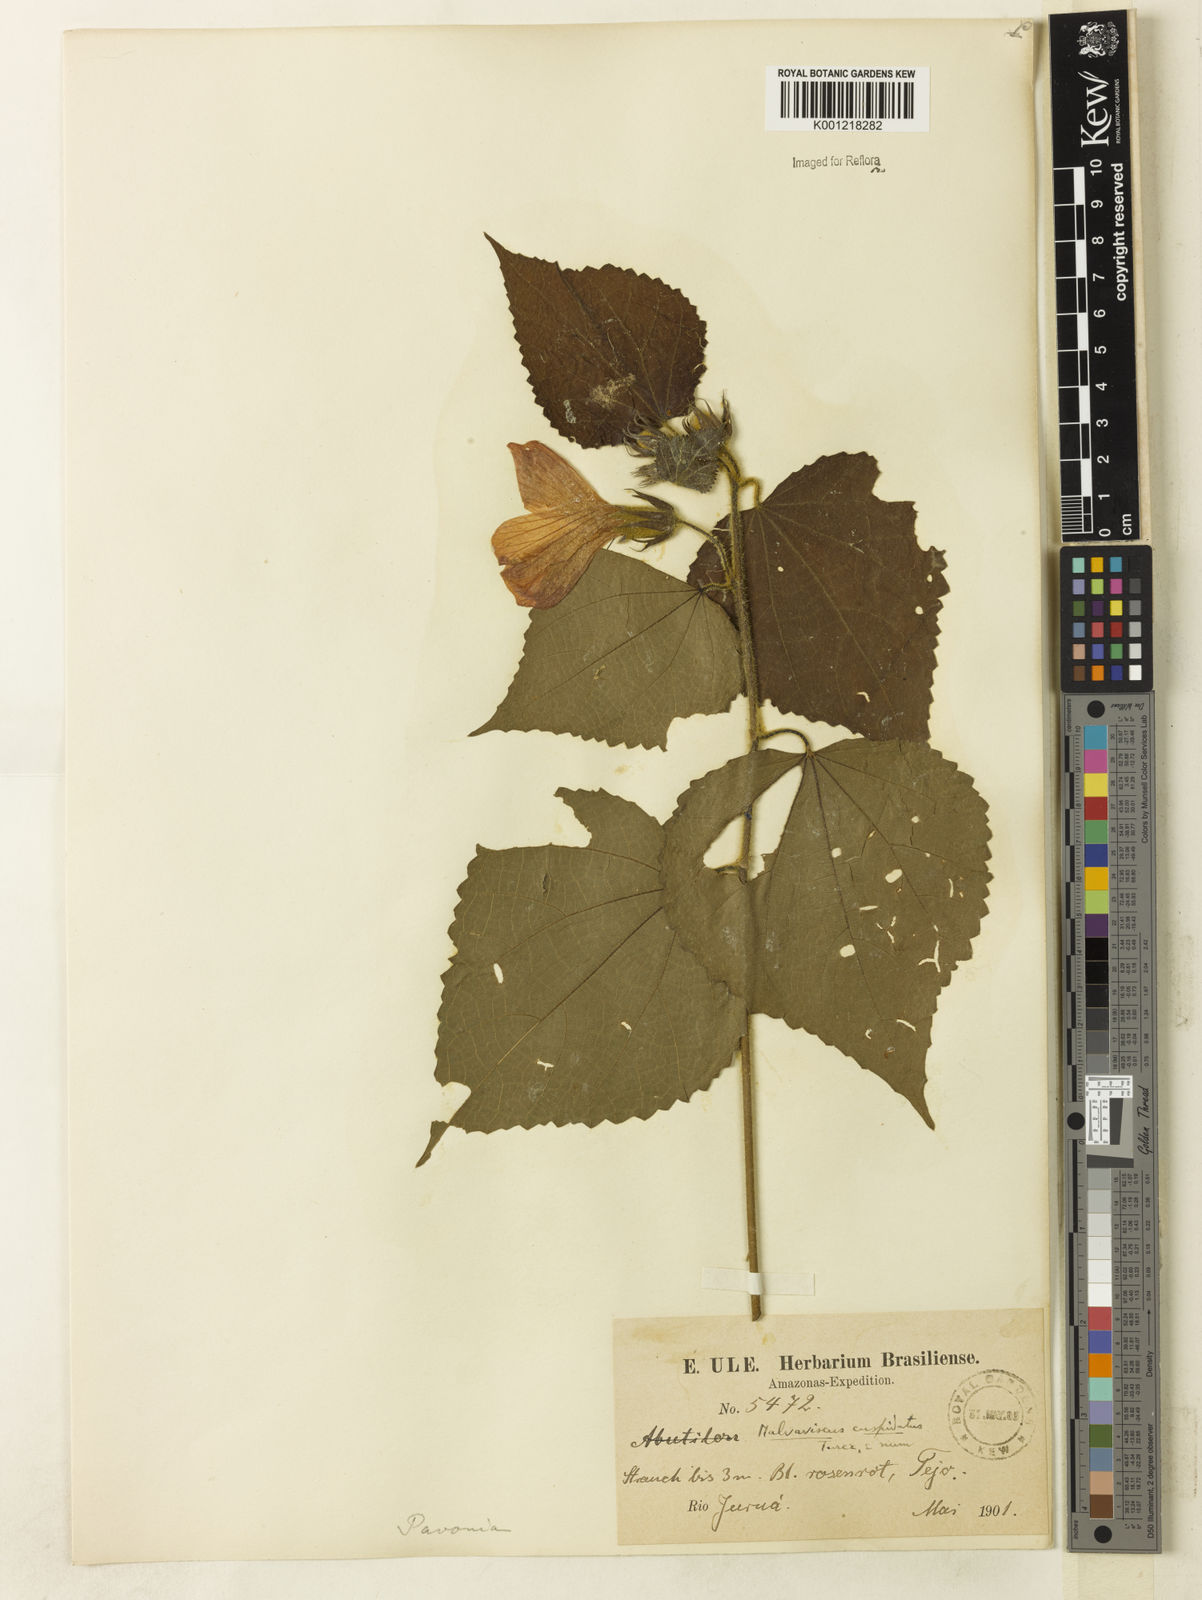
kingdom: Plantae
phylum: Tracheophyta
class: Magnoliopsida
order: Malvales
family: Malvaceae
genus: Malvaviscus
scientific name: Malvaviscus penduliflorus
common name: Mazapan
